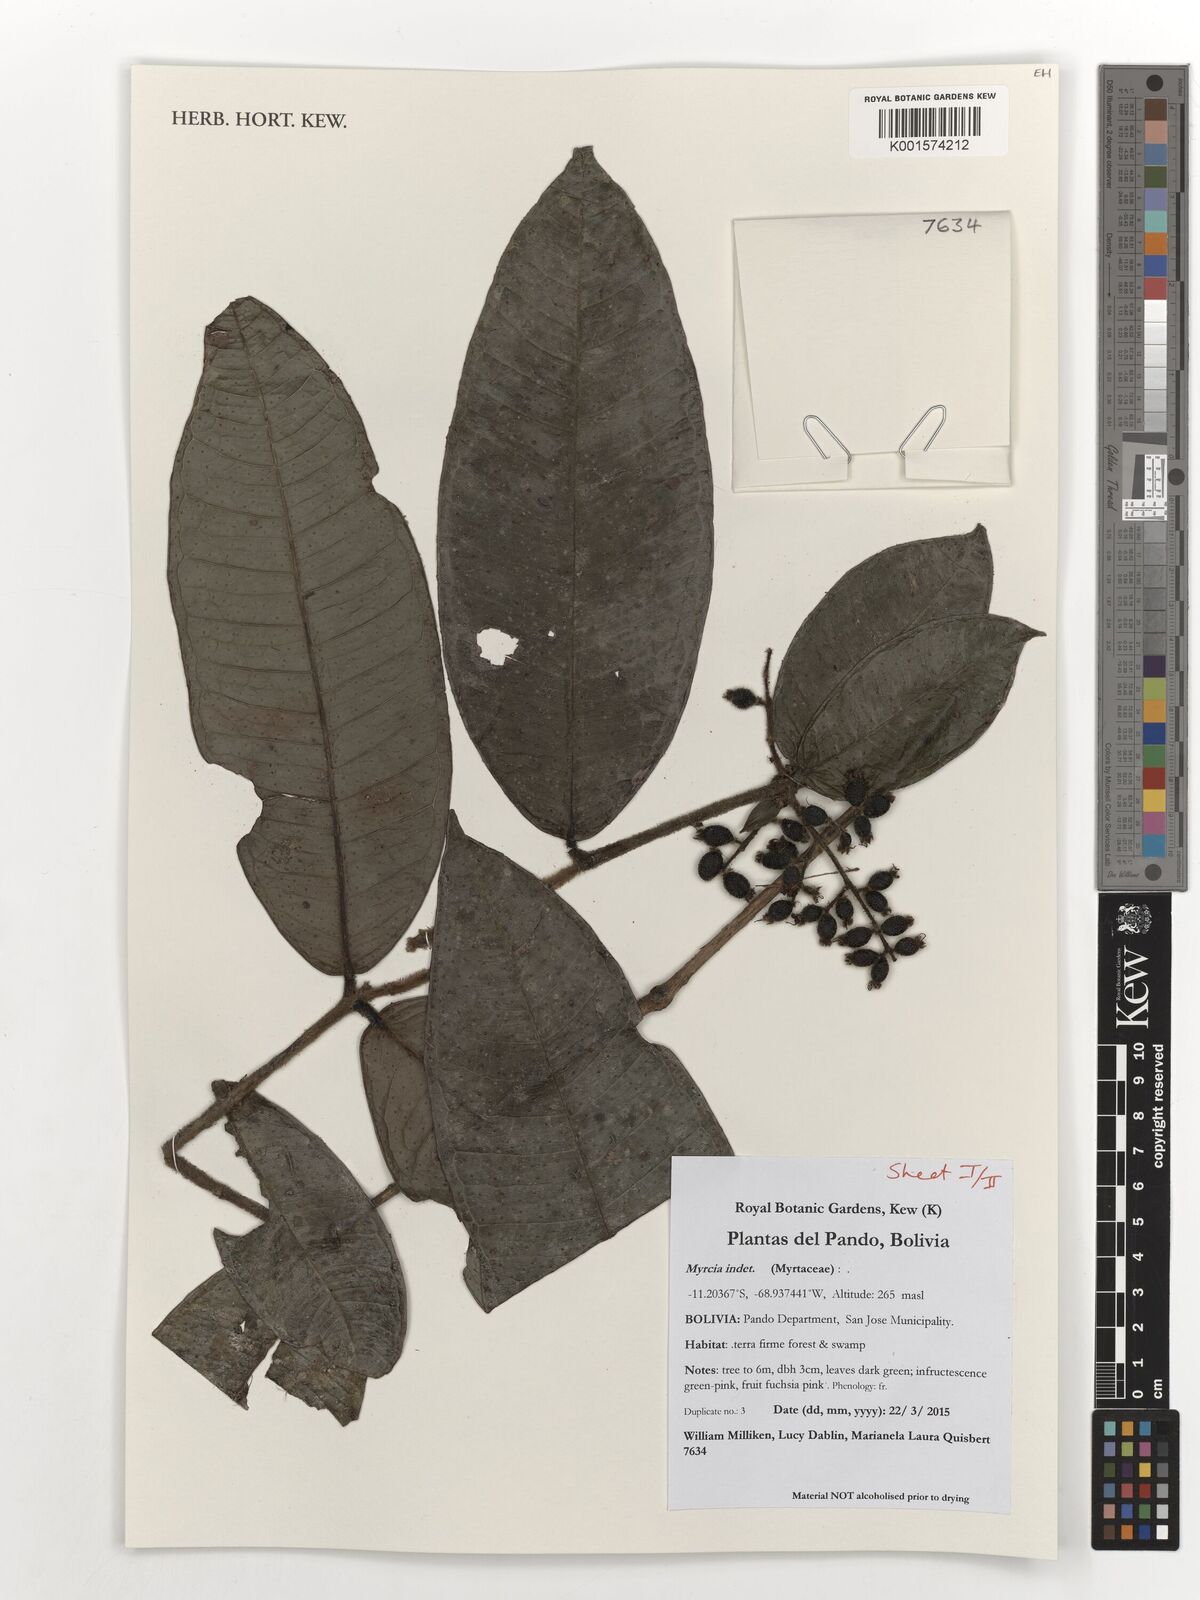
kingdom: Plantae
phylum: Tracheophyta
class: Magnoliopsida
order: Myrtales
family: Myrtaceae
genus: Myrcia
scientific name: Myrcia
